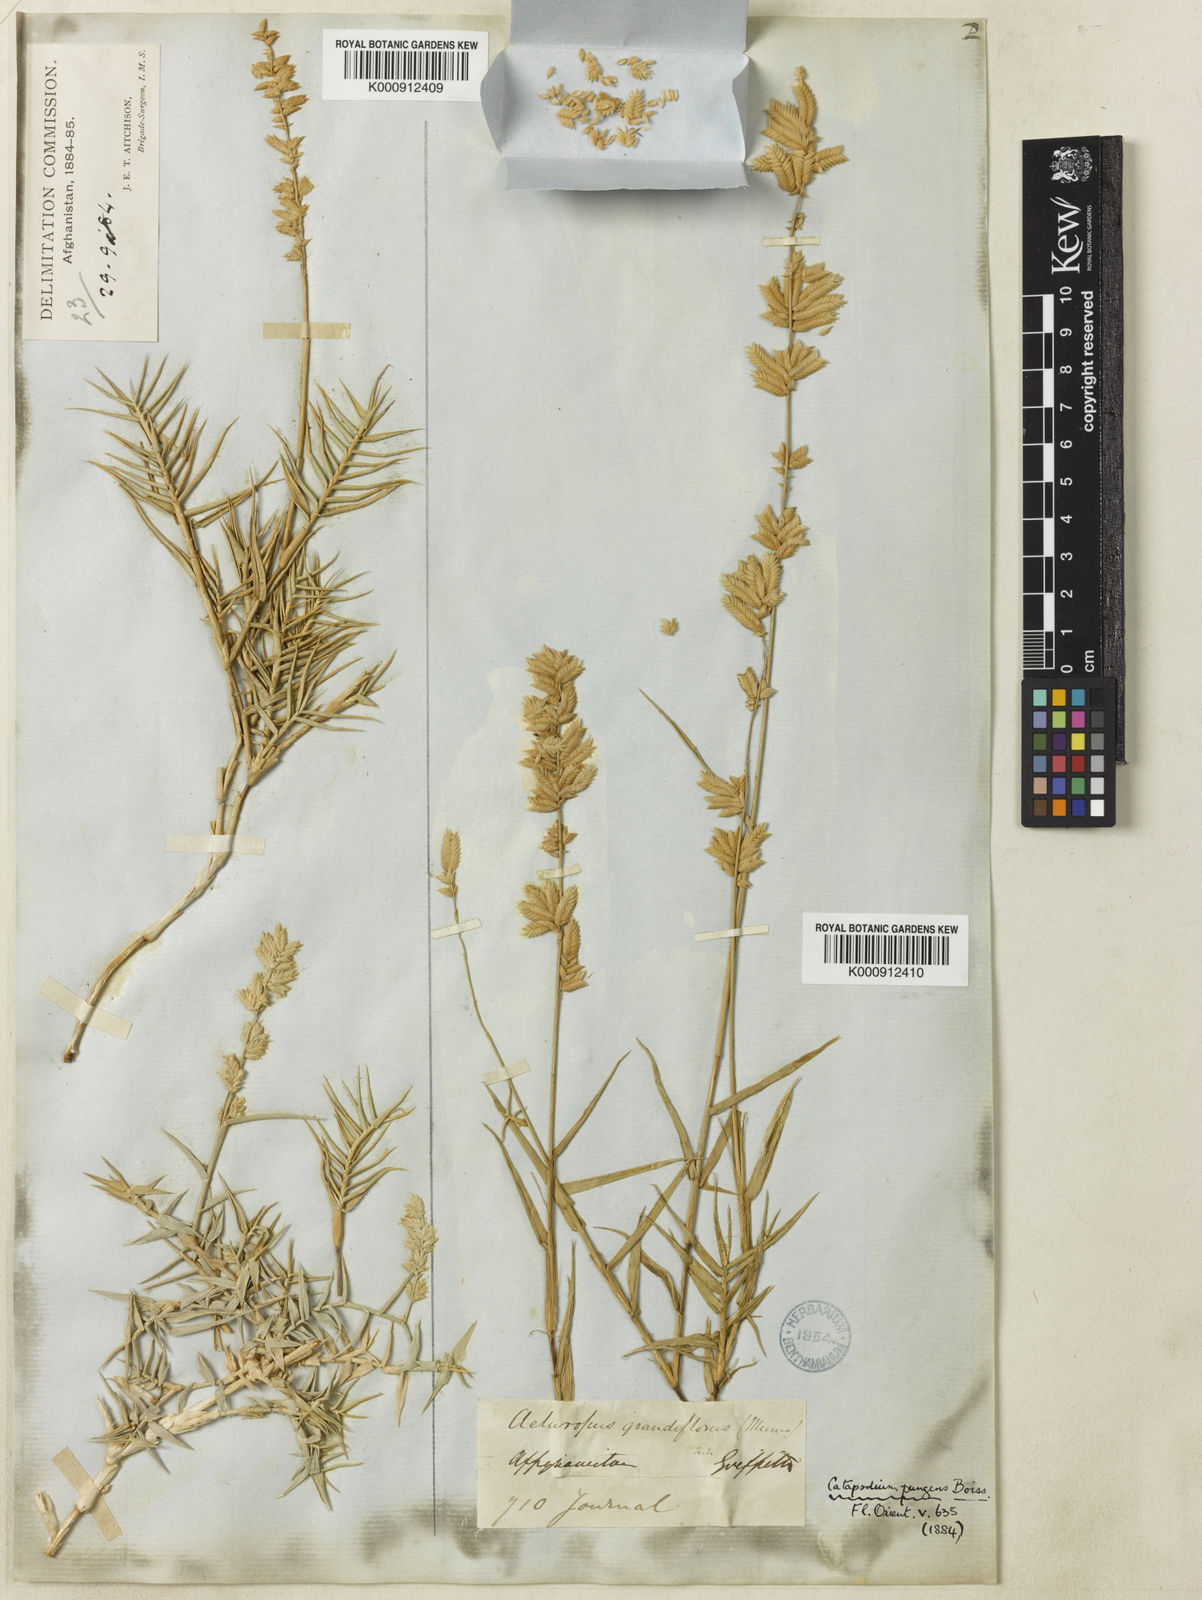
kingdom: Plantae
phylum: Tracheophyta
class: Liliopsida
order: Poales
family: Poaceae
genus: Aeluropus
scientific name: Aeluropus macrostachyus
